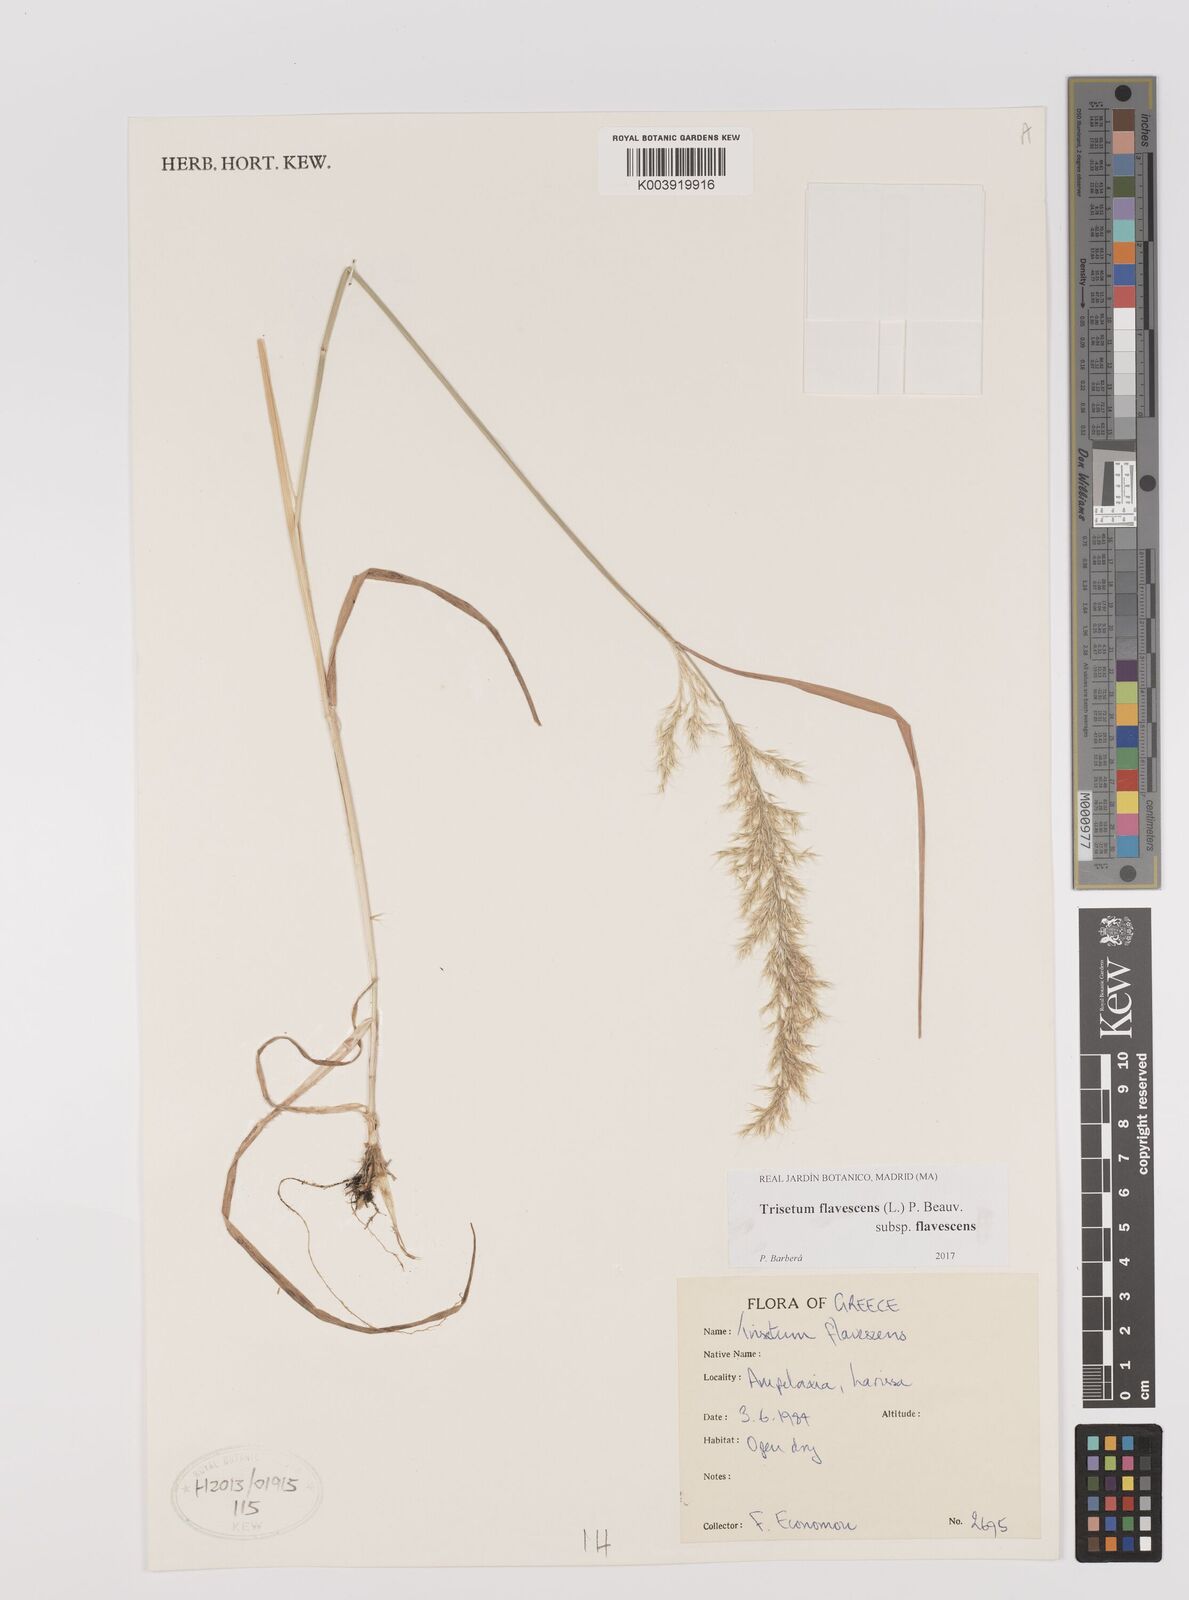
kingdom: Plantae
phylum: Tracheophyta
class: Liliopsida
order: Poales
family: Poaceae
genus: Trisetum
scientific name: Trisetum flavescens
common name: Yellow oat-grass
